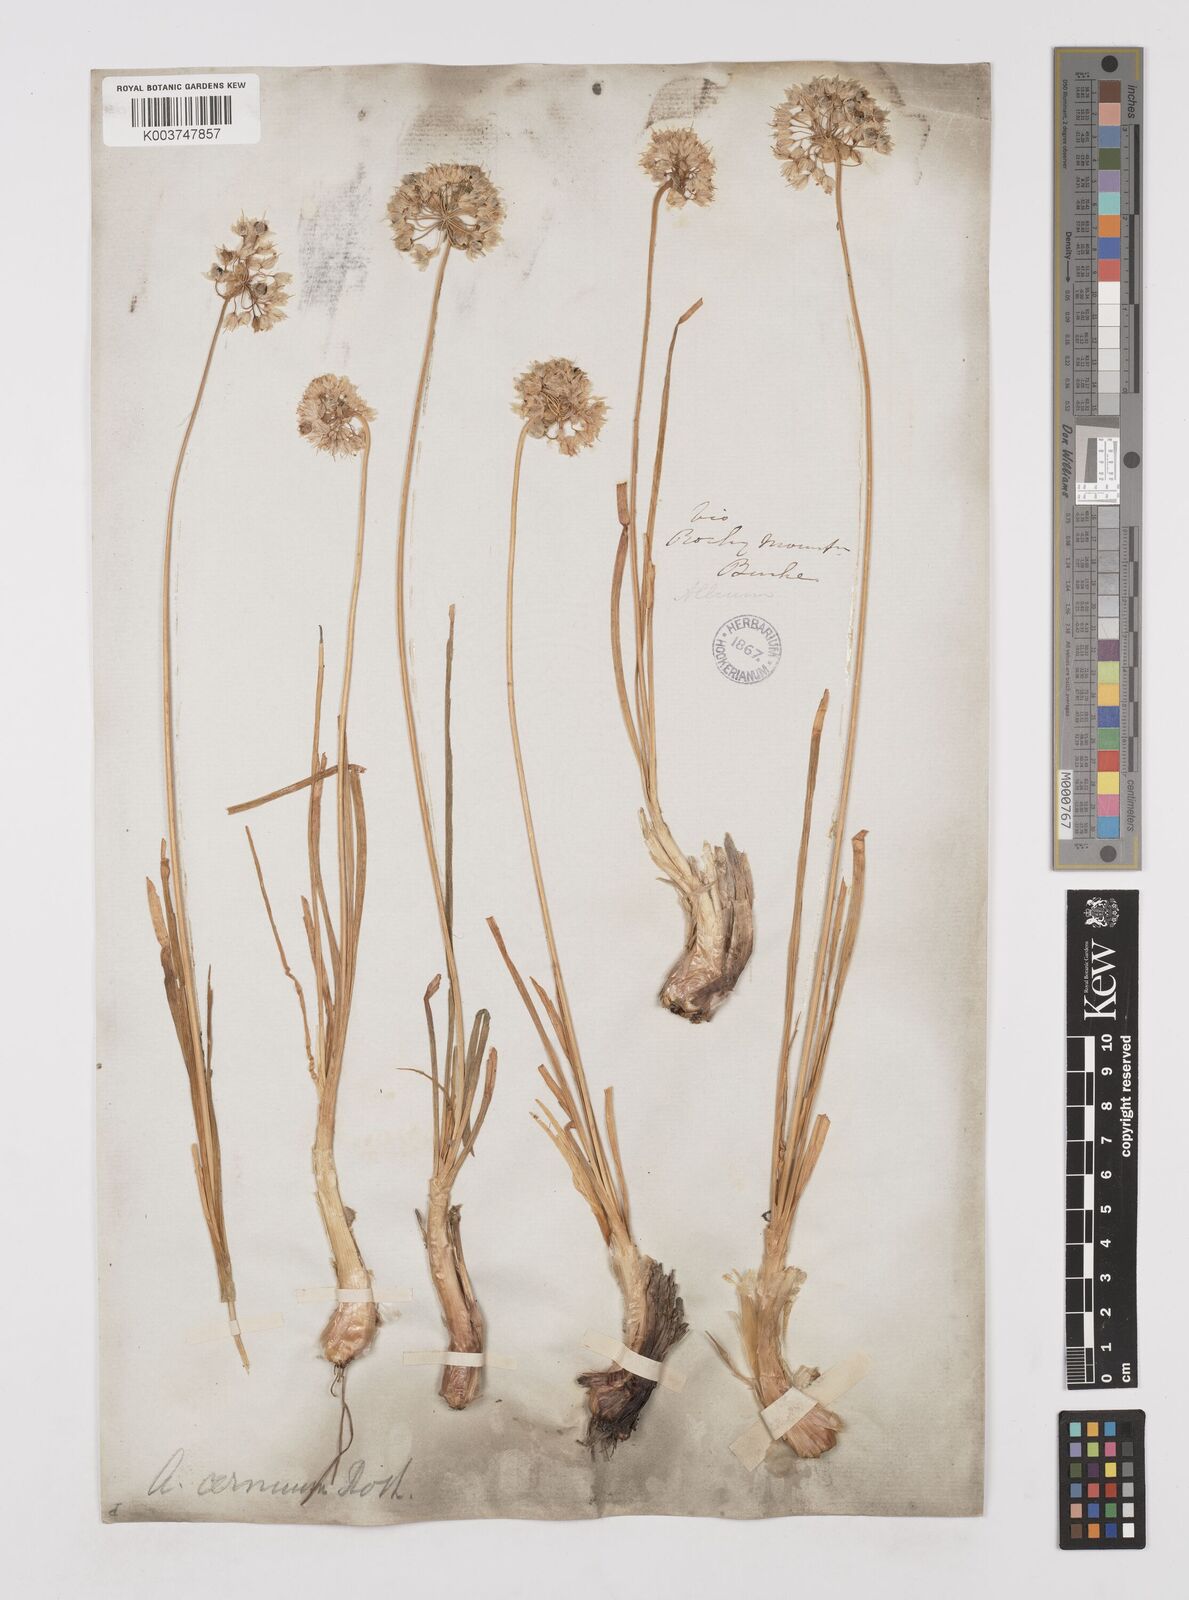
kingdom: Plantae
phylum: Tracheophyta
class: Liliopsida
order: Asparagales
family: Amaryllidaceae
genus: Allium
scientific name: Allium cernuum
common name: Nodding onion
